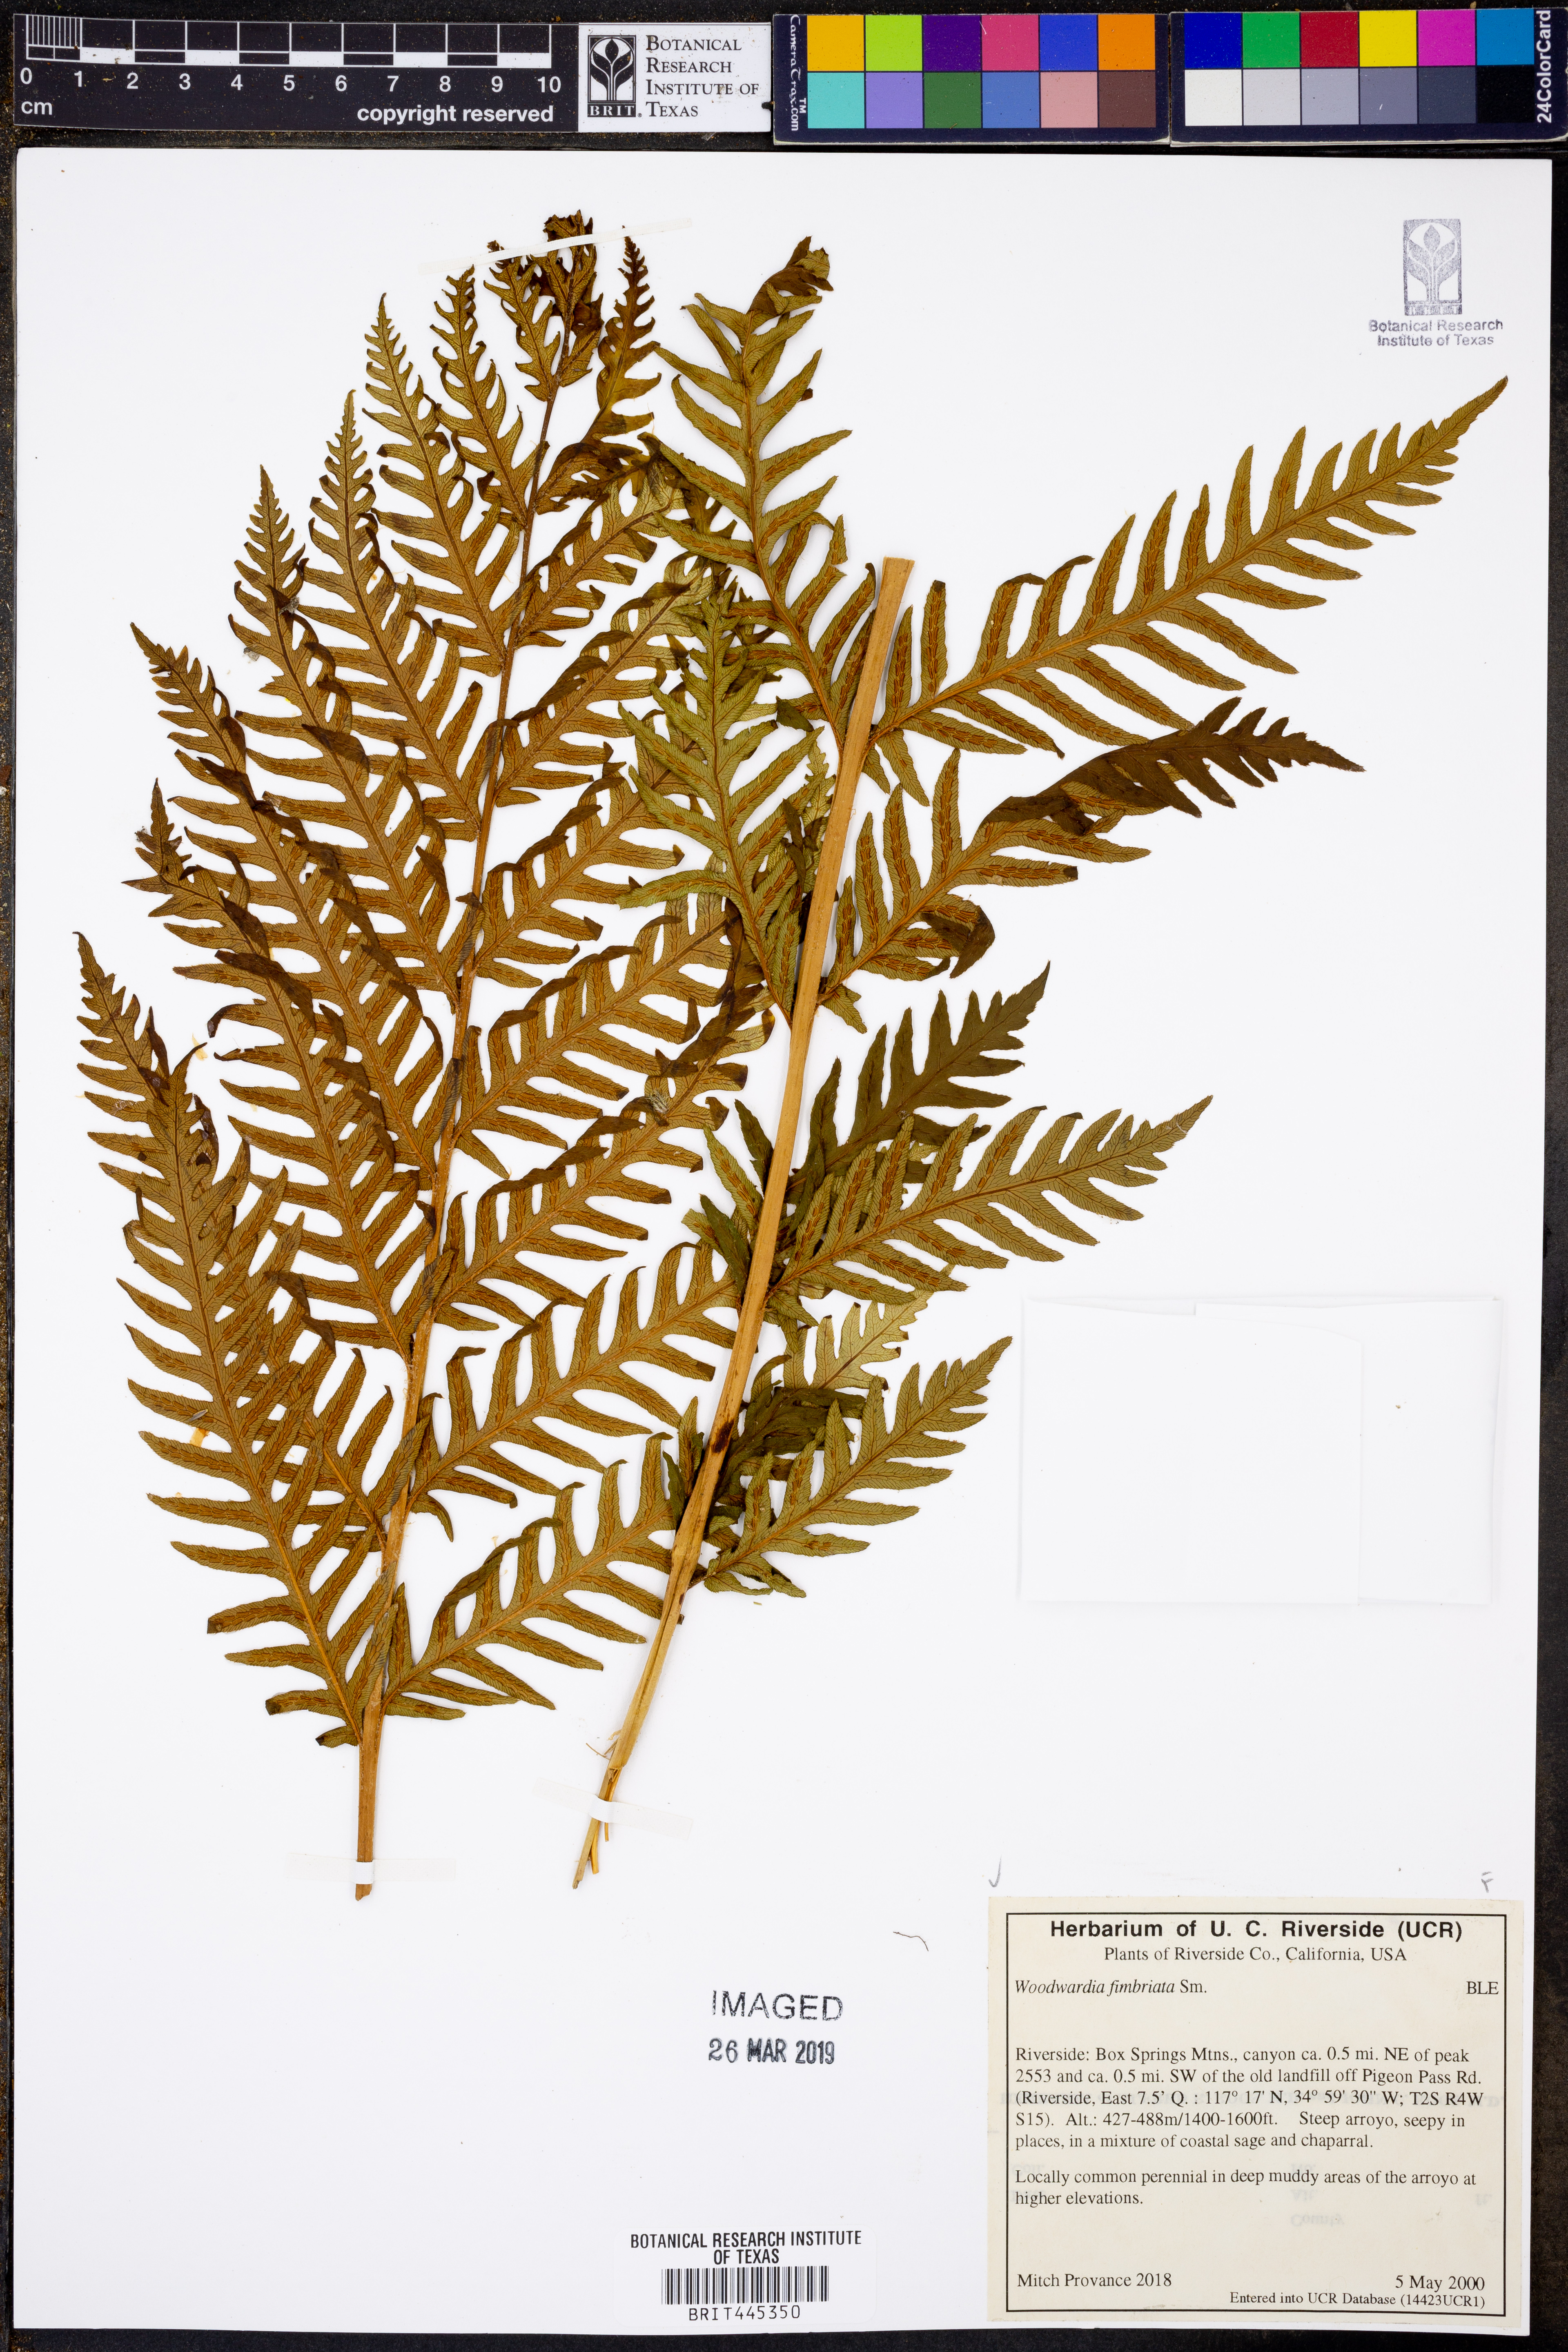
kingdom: Plantae
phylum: Tracheophyta
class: Polypodiopsida
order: Polypodiales
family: Blechnaceae
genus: Woodwardia
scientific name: Woodwardia fimbriata
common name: Giant chain fern
